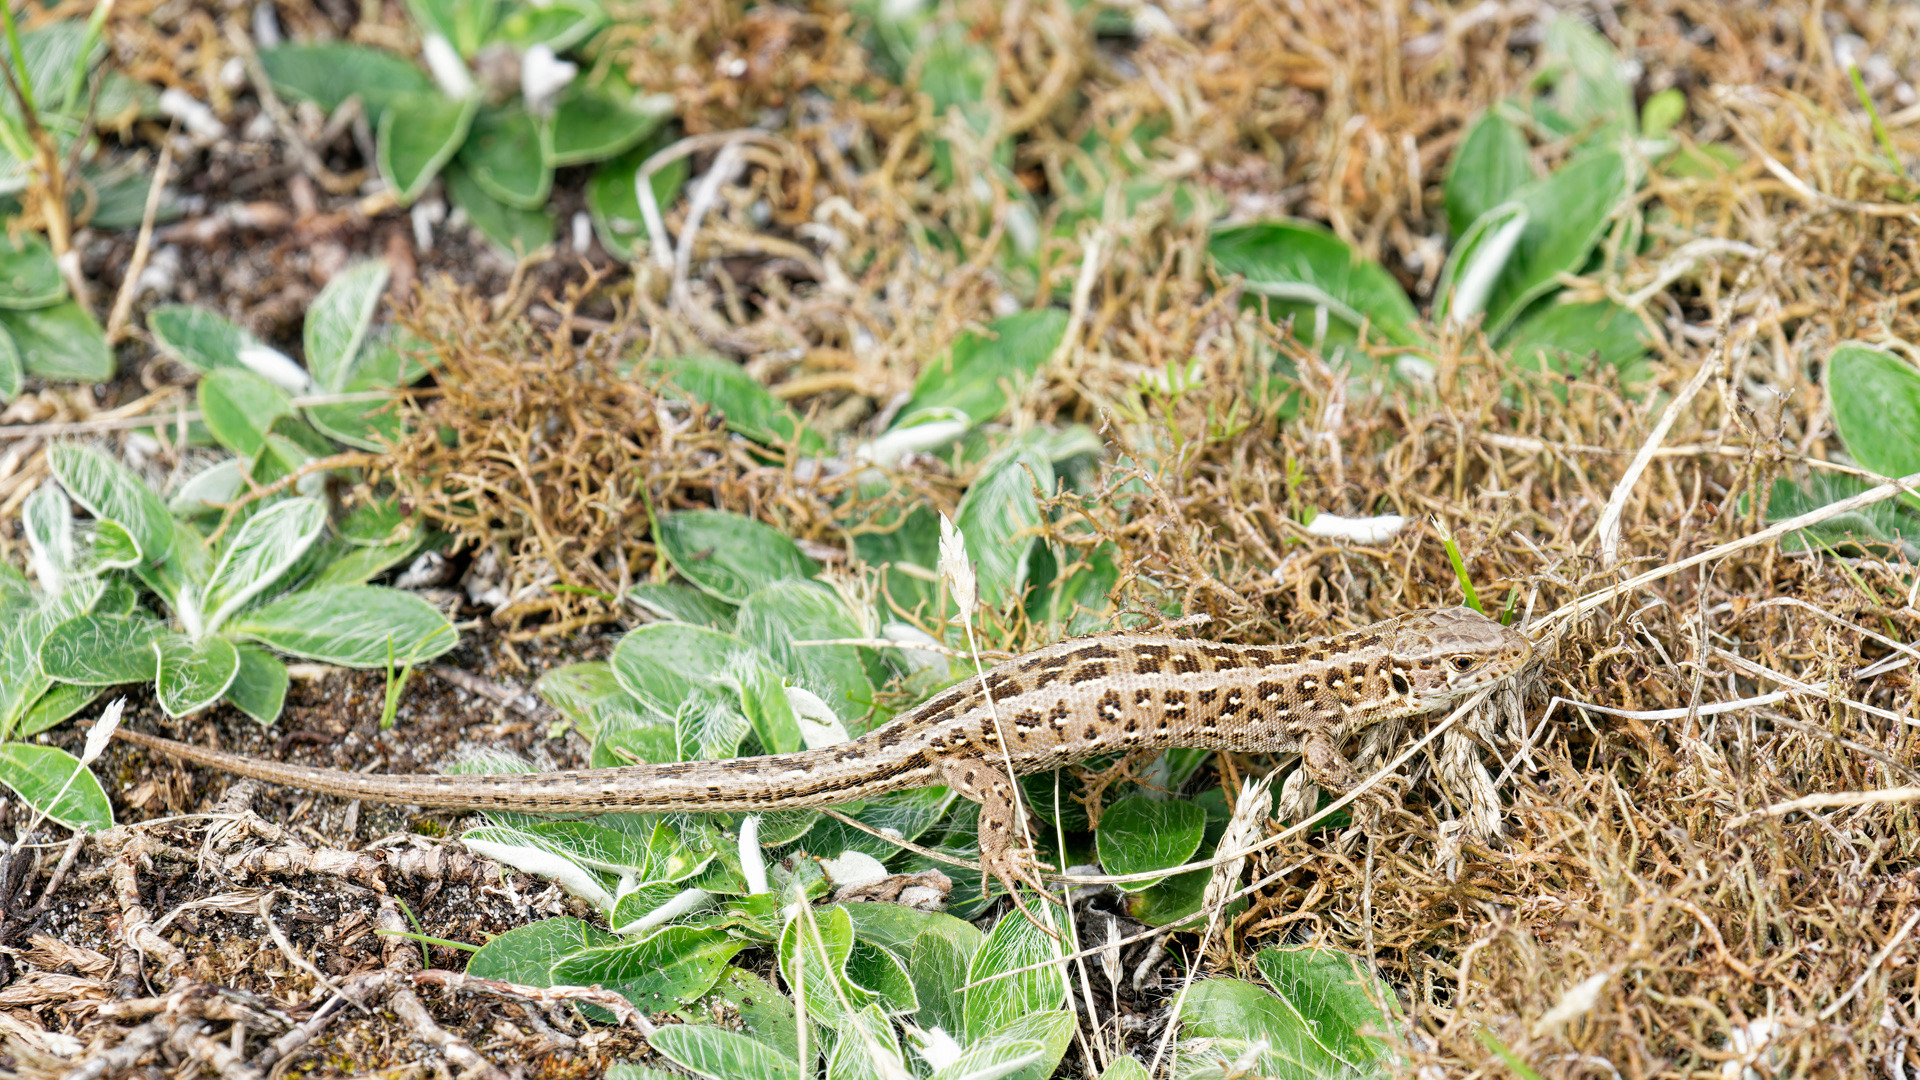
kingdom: Animalia
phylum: Chordata
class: Squamata
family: Lacertidae
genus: Lacerta
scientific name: Lacerta agilis
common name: Markfirben
